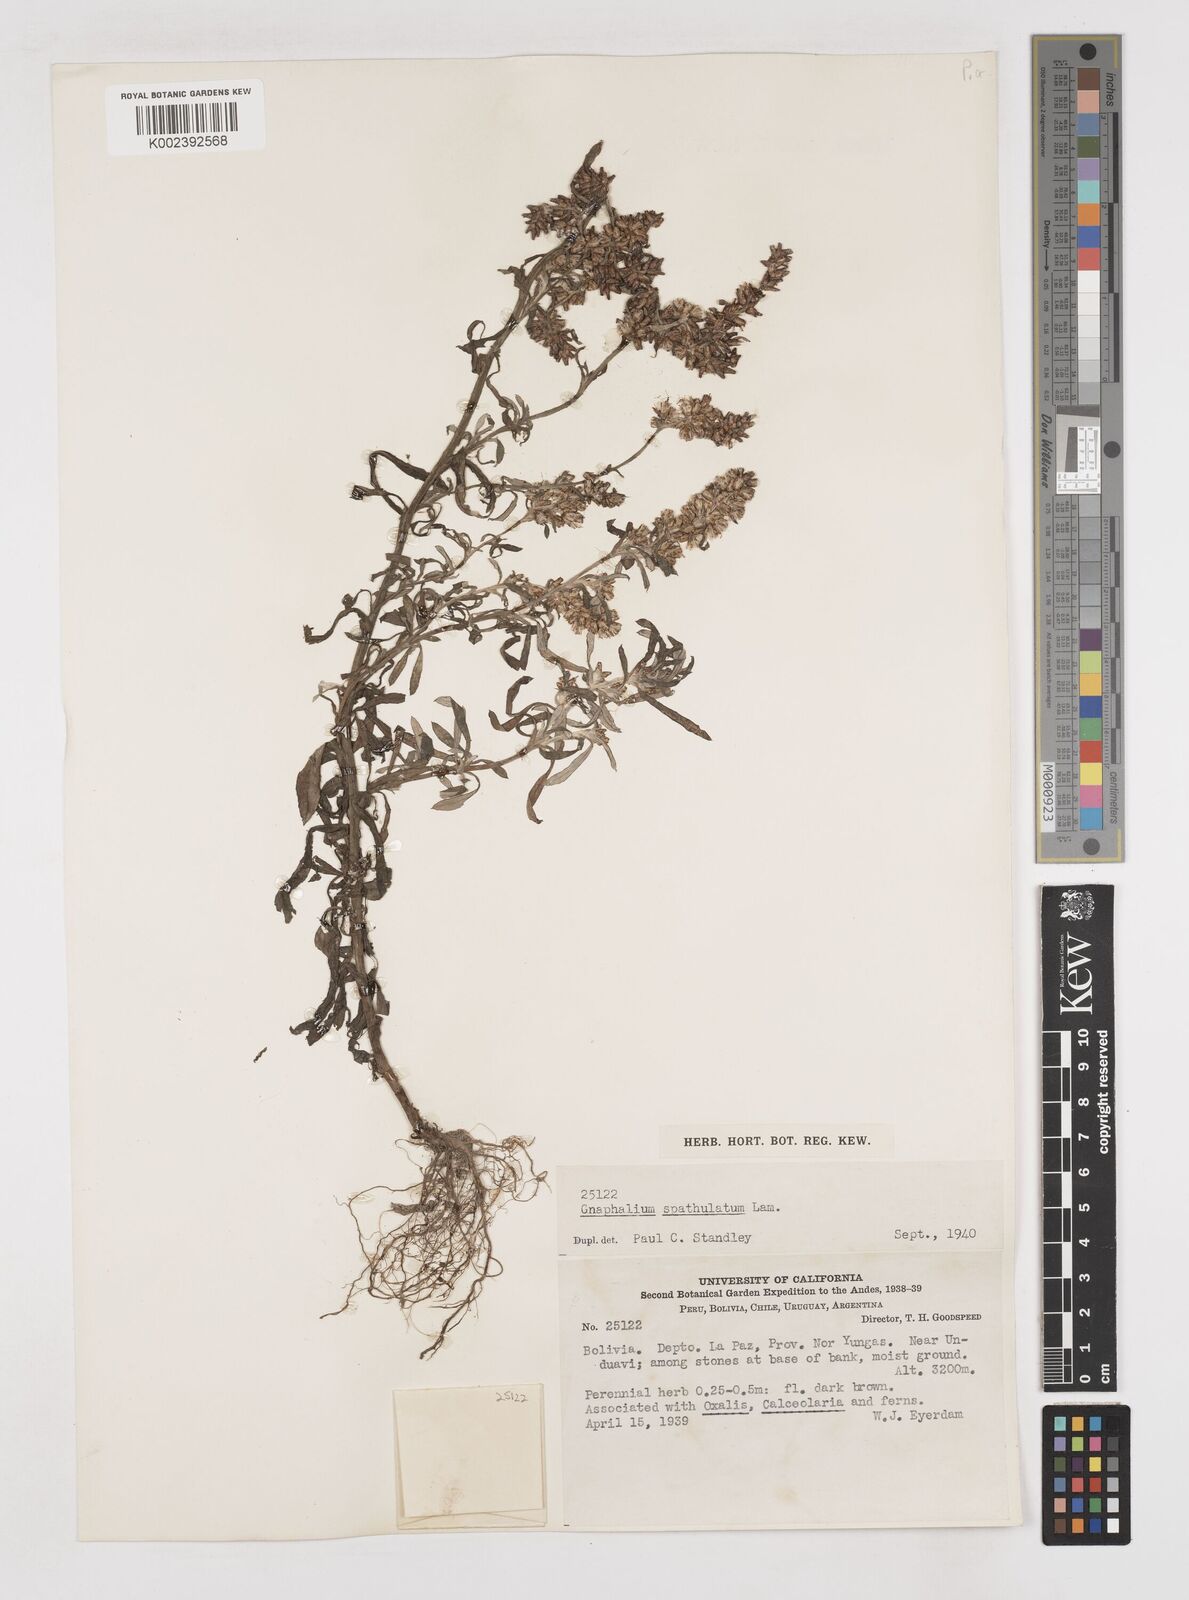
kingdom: Plantae
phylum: Tracheophyta
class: Magnoliopsida
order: Asterales
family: Asteraceae
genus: Pseudognaphalium
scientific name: Pseudognaphalium purpurascens
